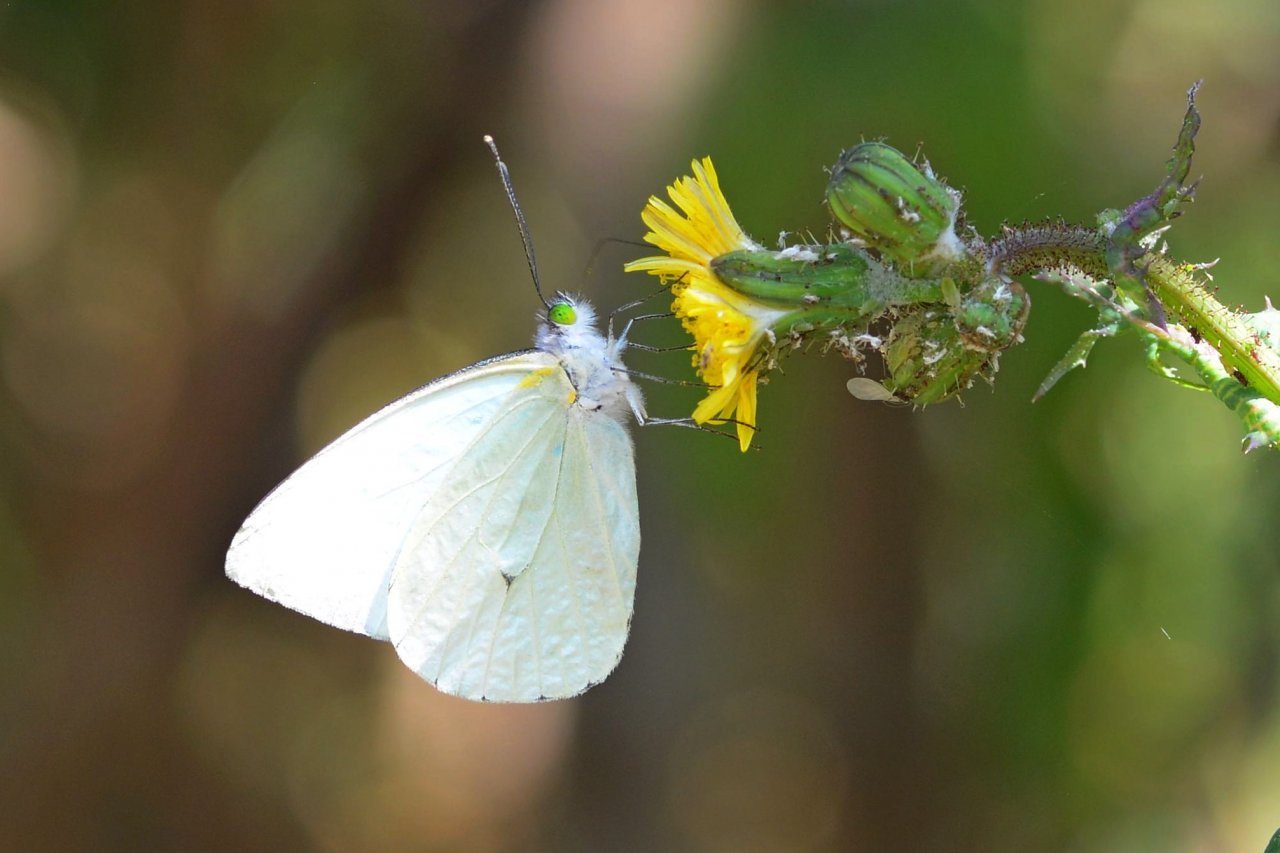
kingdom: Animalia
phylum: Arthropoda
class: Insecta
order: Lepidoptera
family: Nymphalidae
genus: Junonia
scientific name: Junonia evarete
